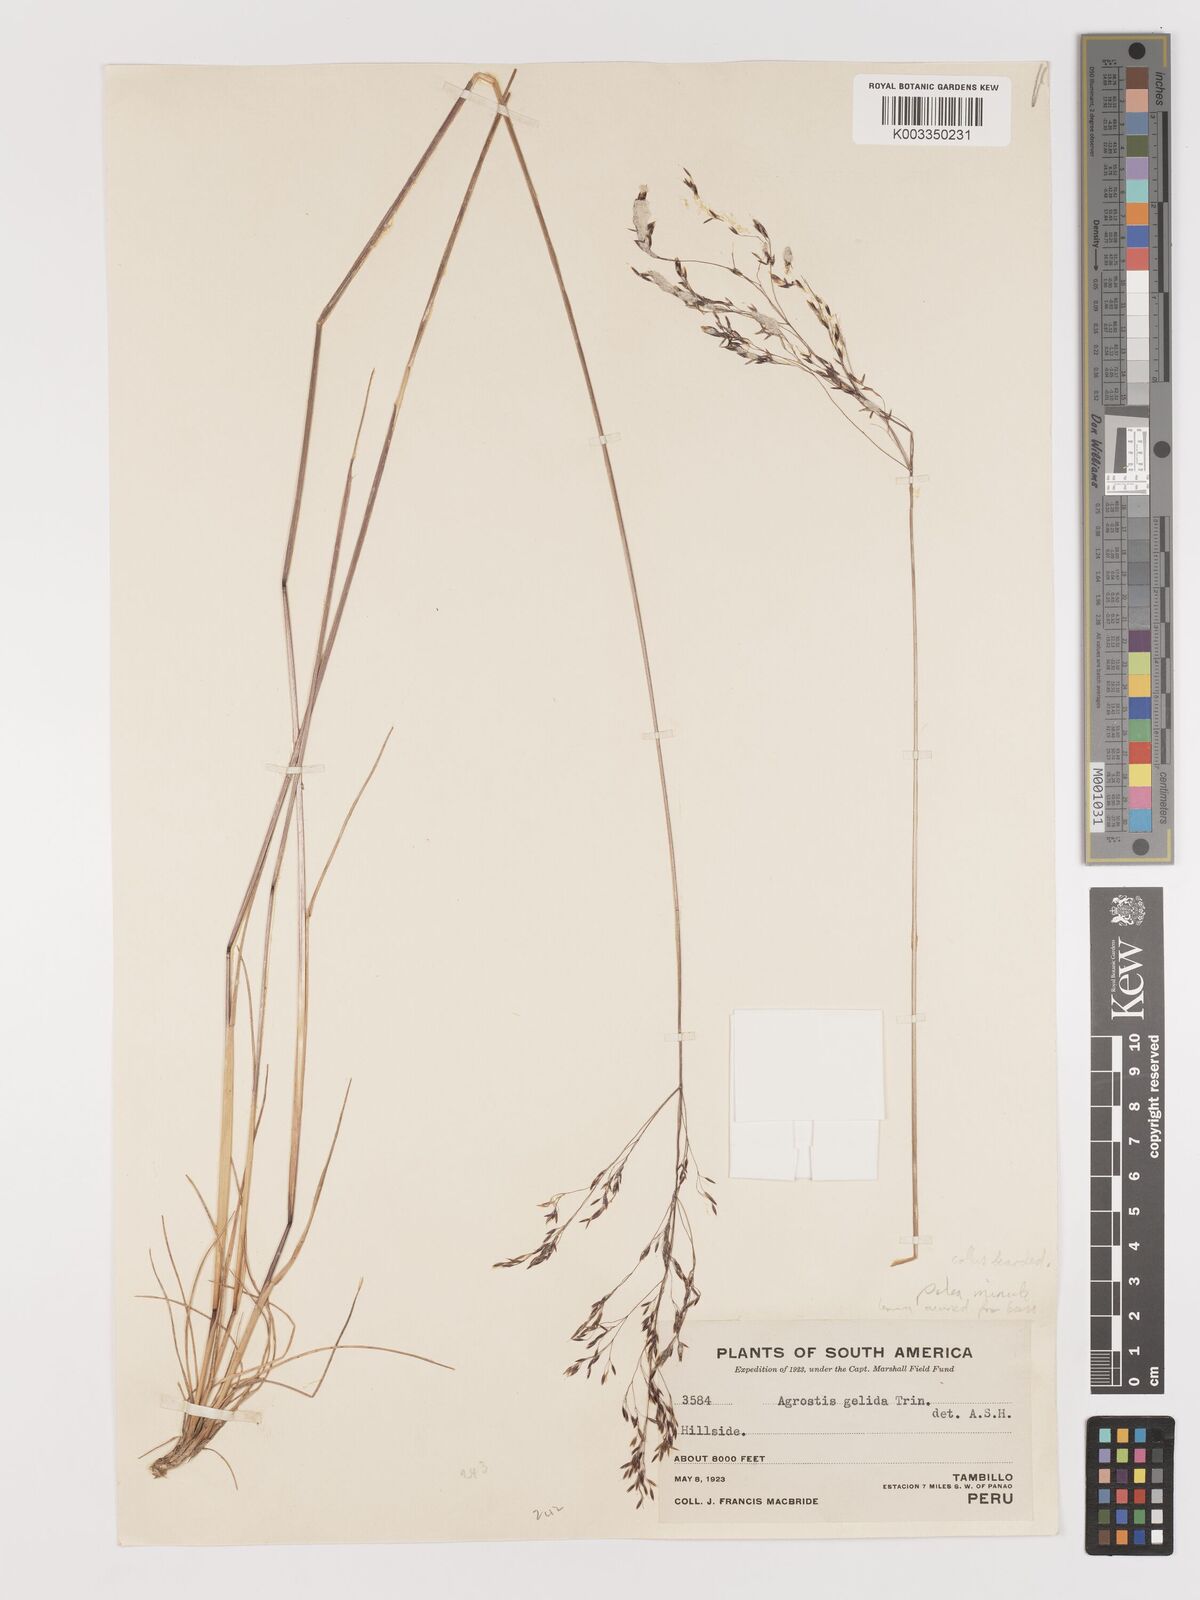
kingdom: Plantae
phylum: Tracheophyta
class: Liliopsida
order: Poales
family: Poaceae
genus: Agrostis
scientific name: Agrostis
